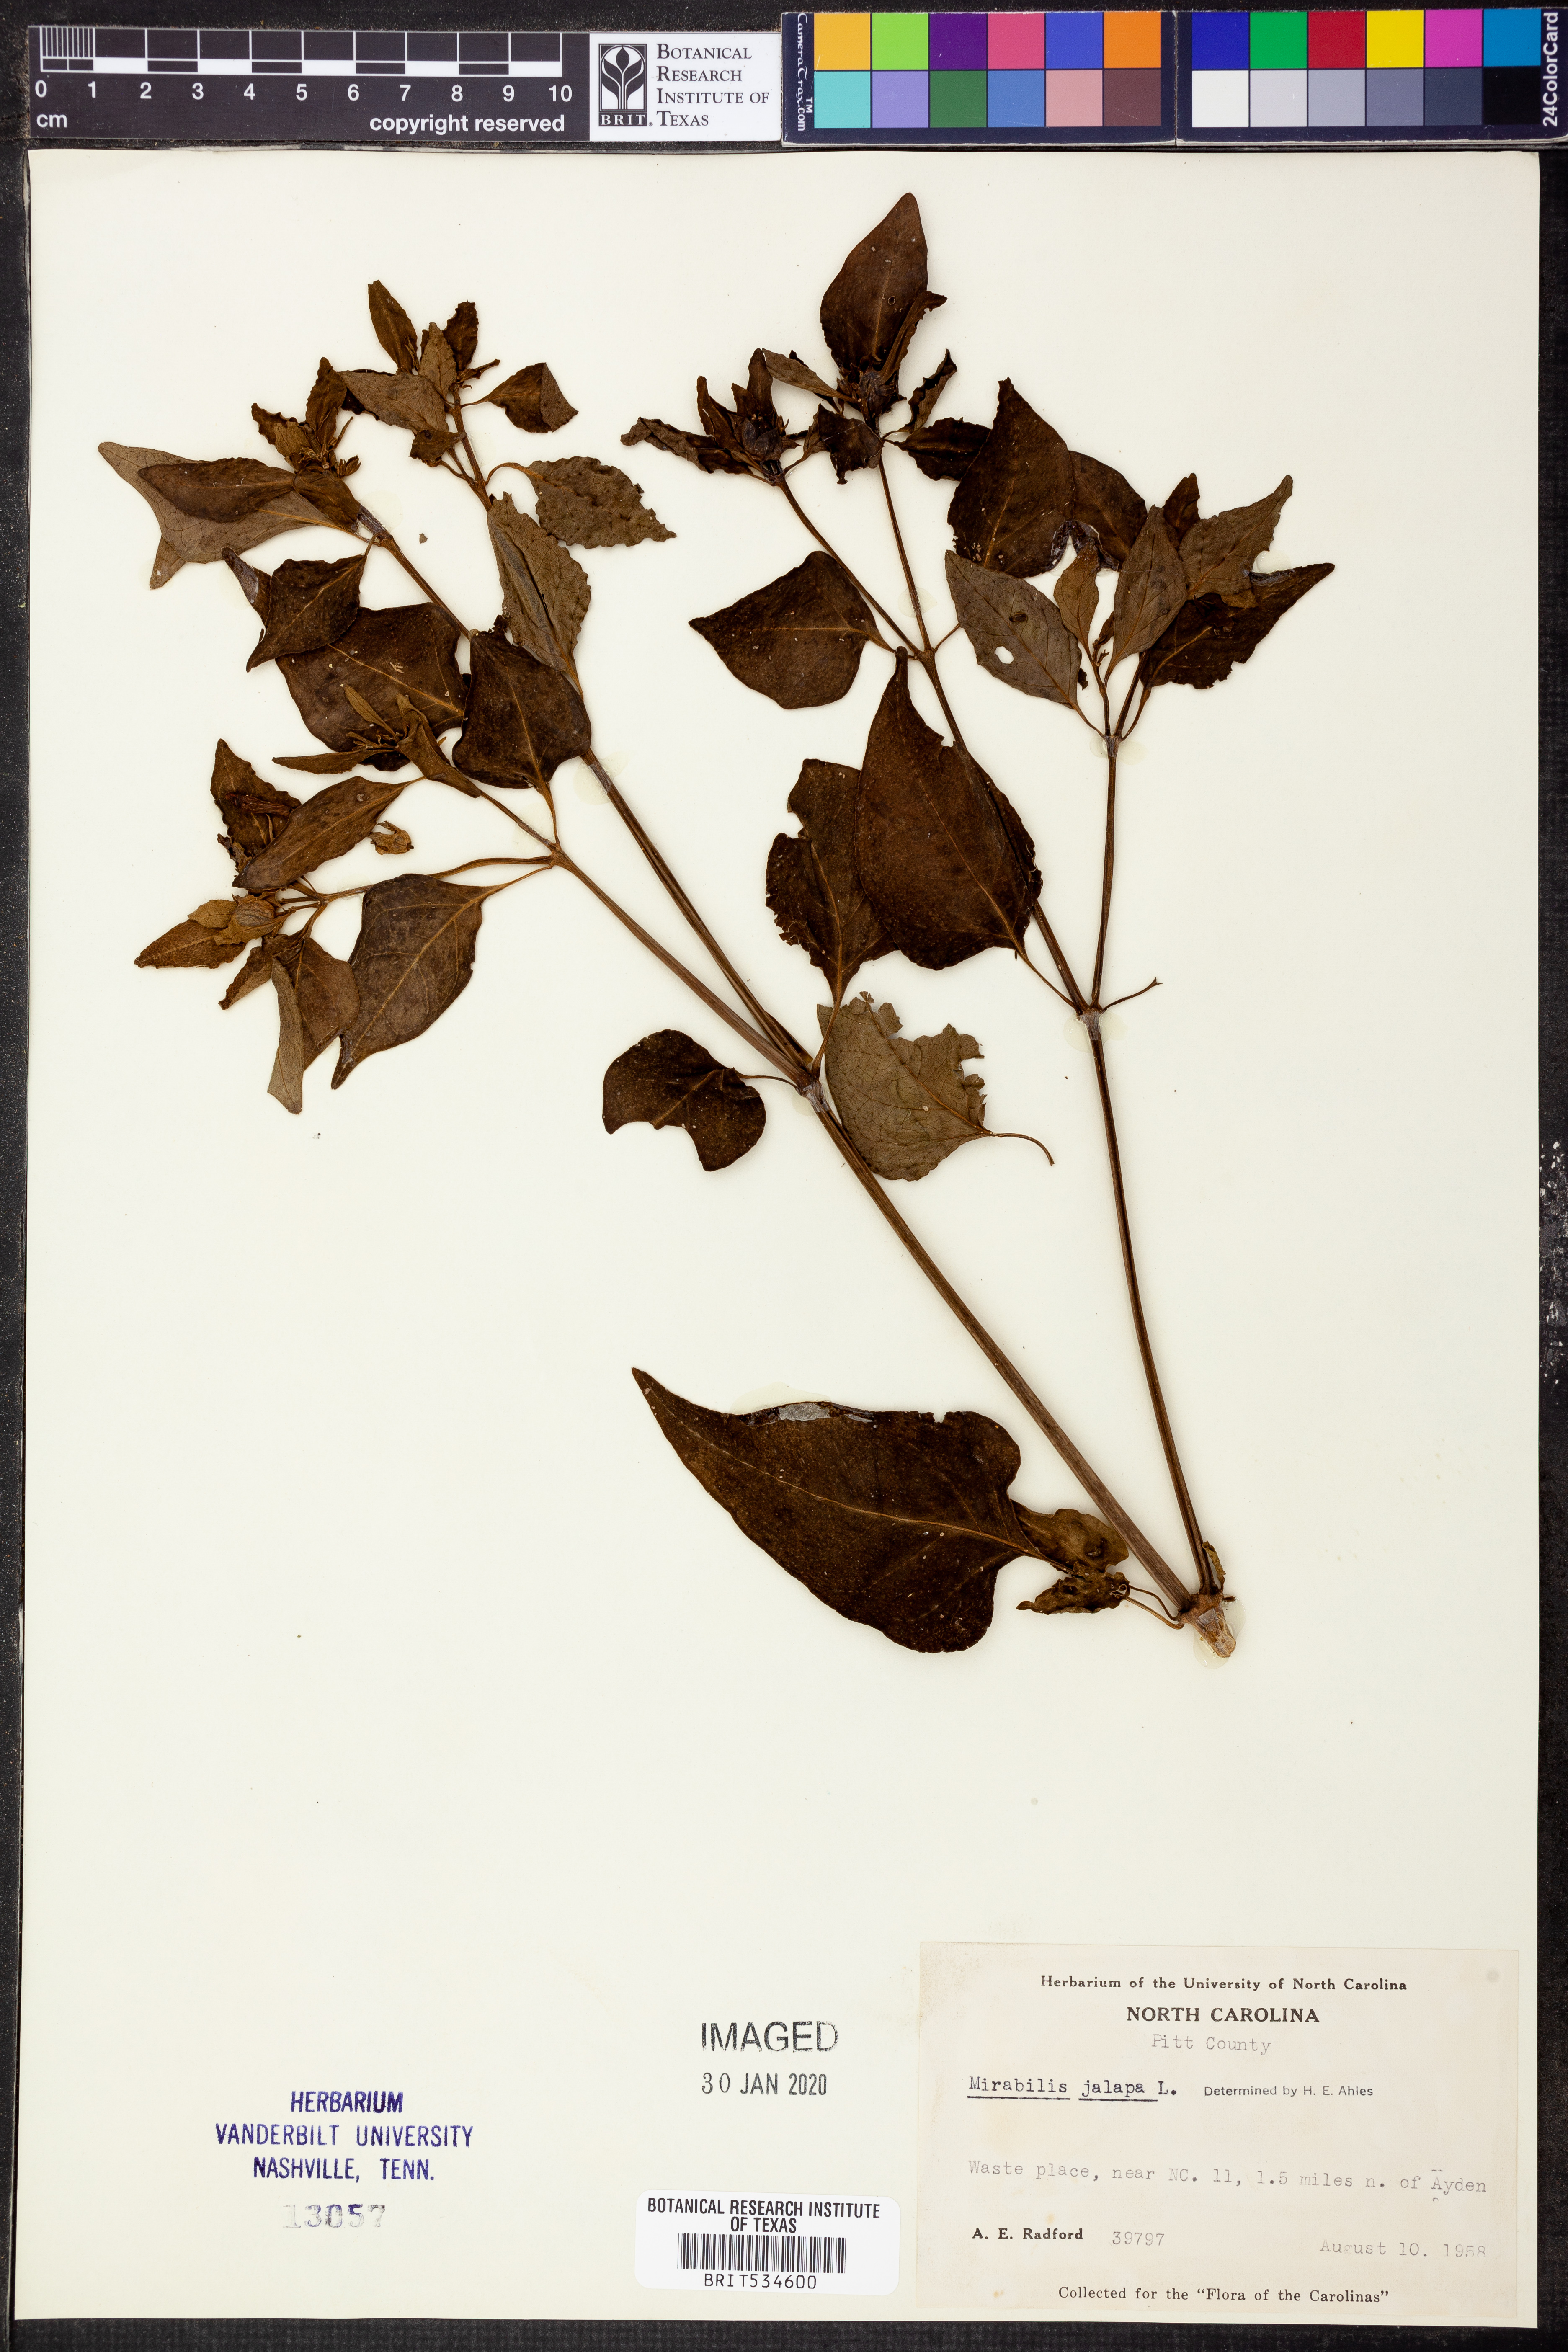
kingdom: Plantae
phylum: Tracheophyta
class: Magnoliopsida
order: Caryophyllales
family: Nyctaginaceae
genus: Mirabilis
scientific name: Mirabilis jalapa
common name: Marvel-of-peru
